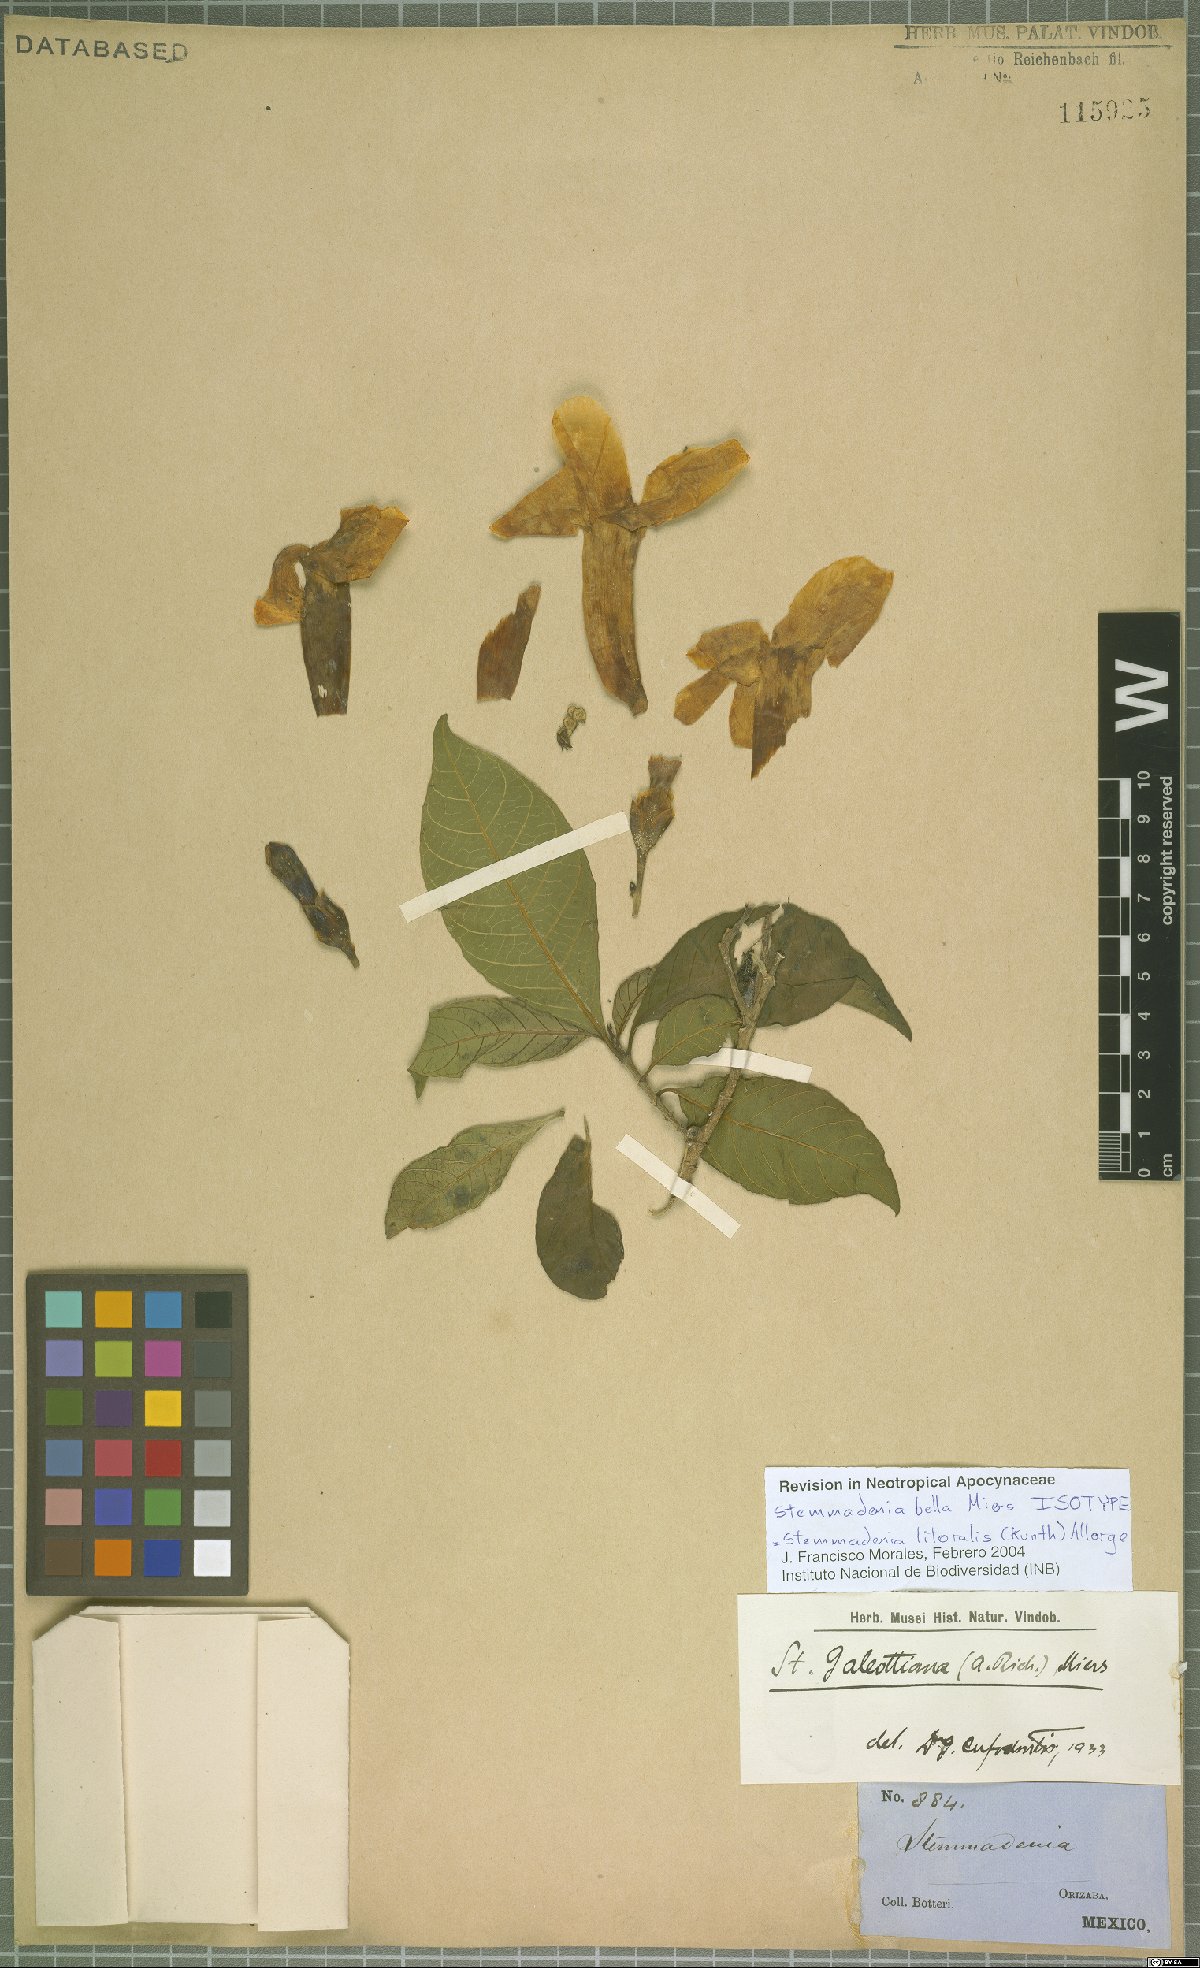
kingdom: Plantae
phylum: Tracheophyta
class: Magnoliopsida
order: Gentianales
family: Apocynaceae
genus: Tabernaemontana
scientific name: Tabernaemontana litoralis
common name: Milkwood
